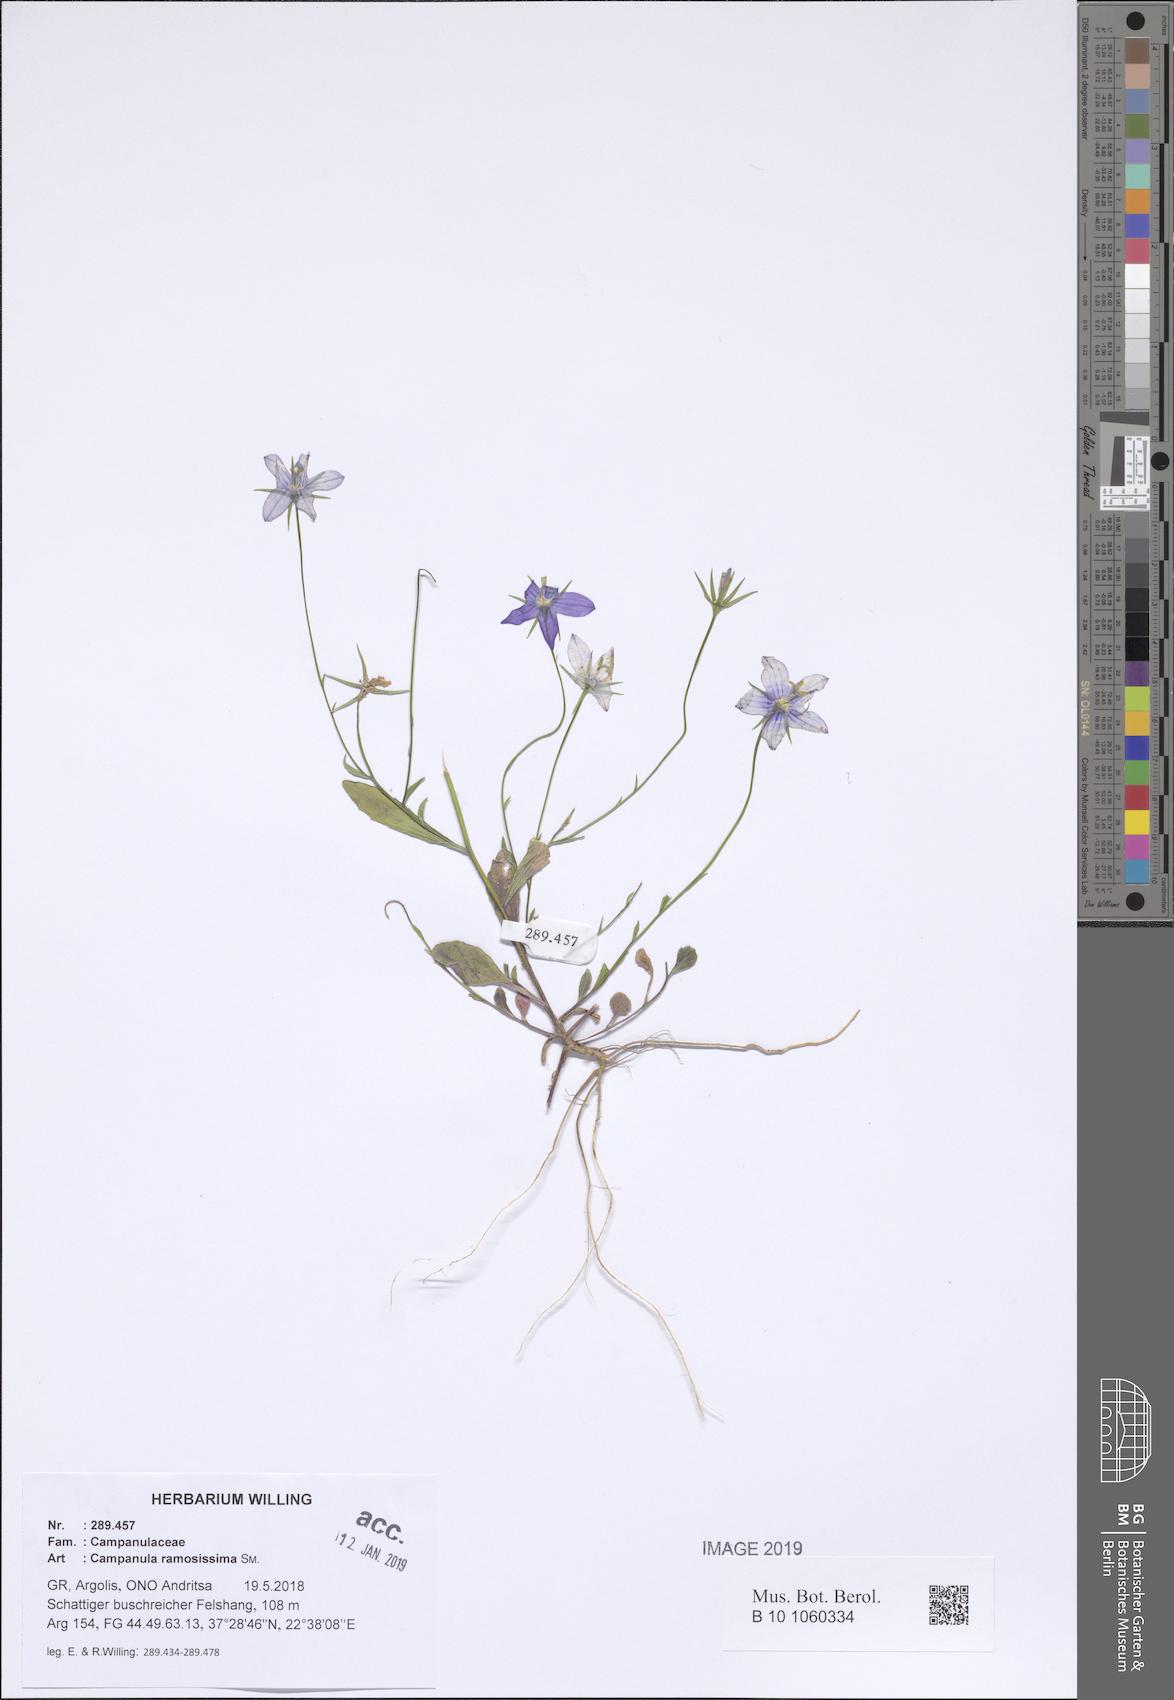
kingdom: Plantae
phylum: Tracheophyta
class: Magnoliopsida
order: Asterales
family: Campanulaceae
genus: Campanula
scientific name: Campanula ramosissima
